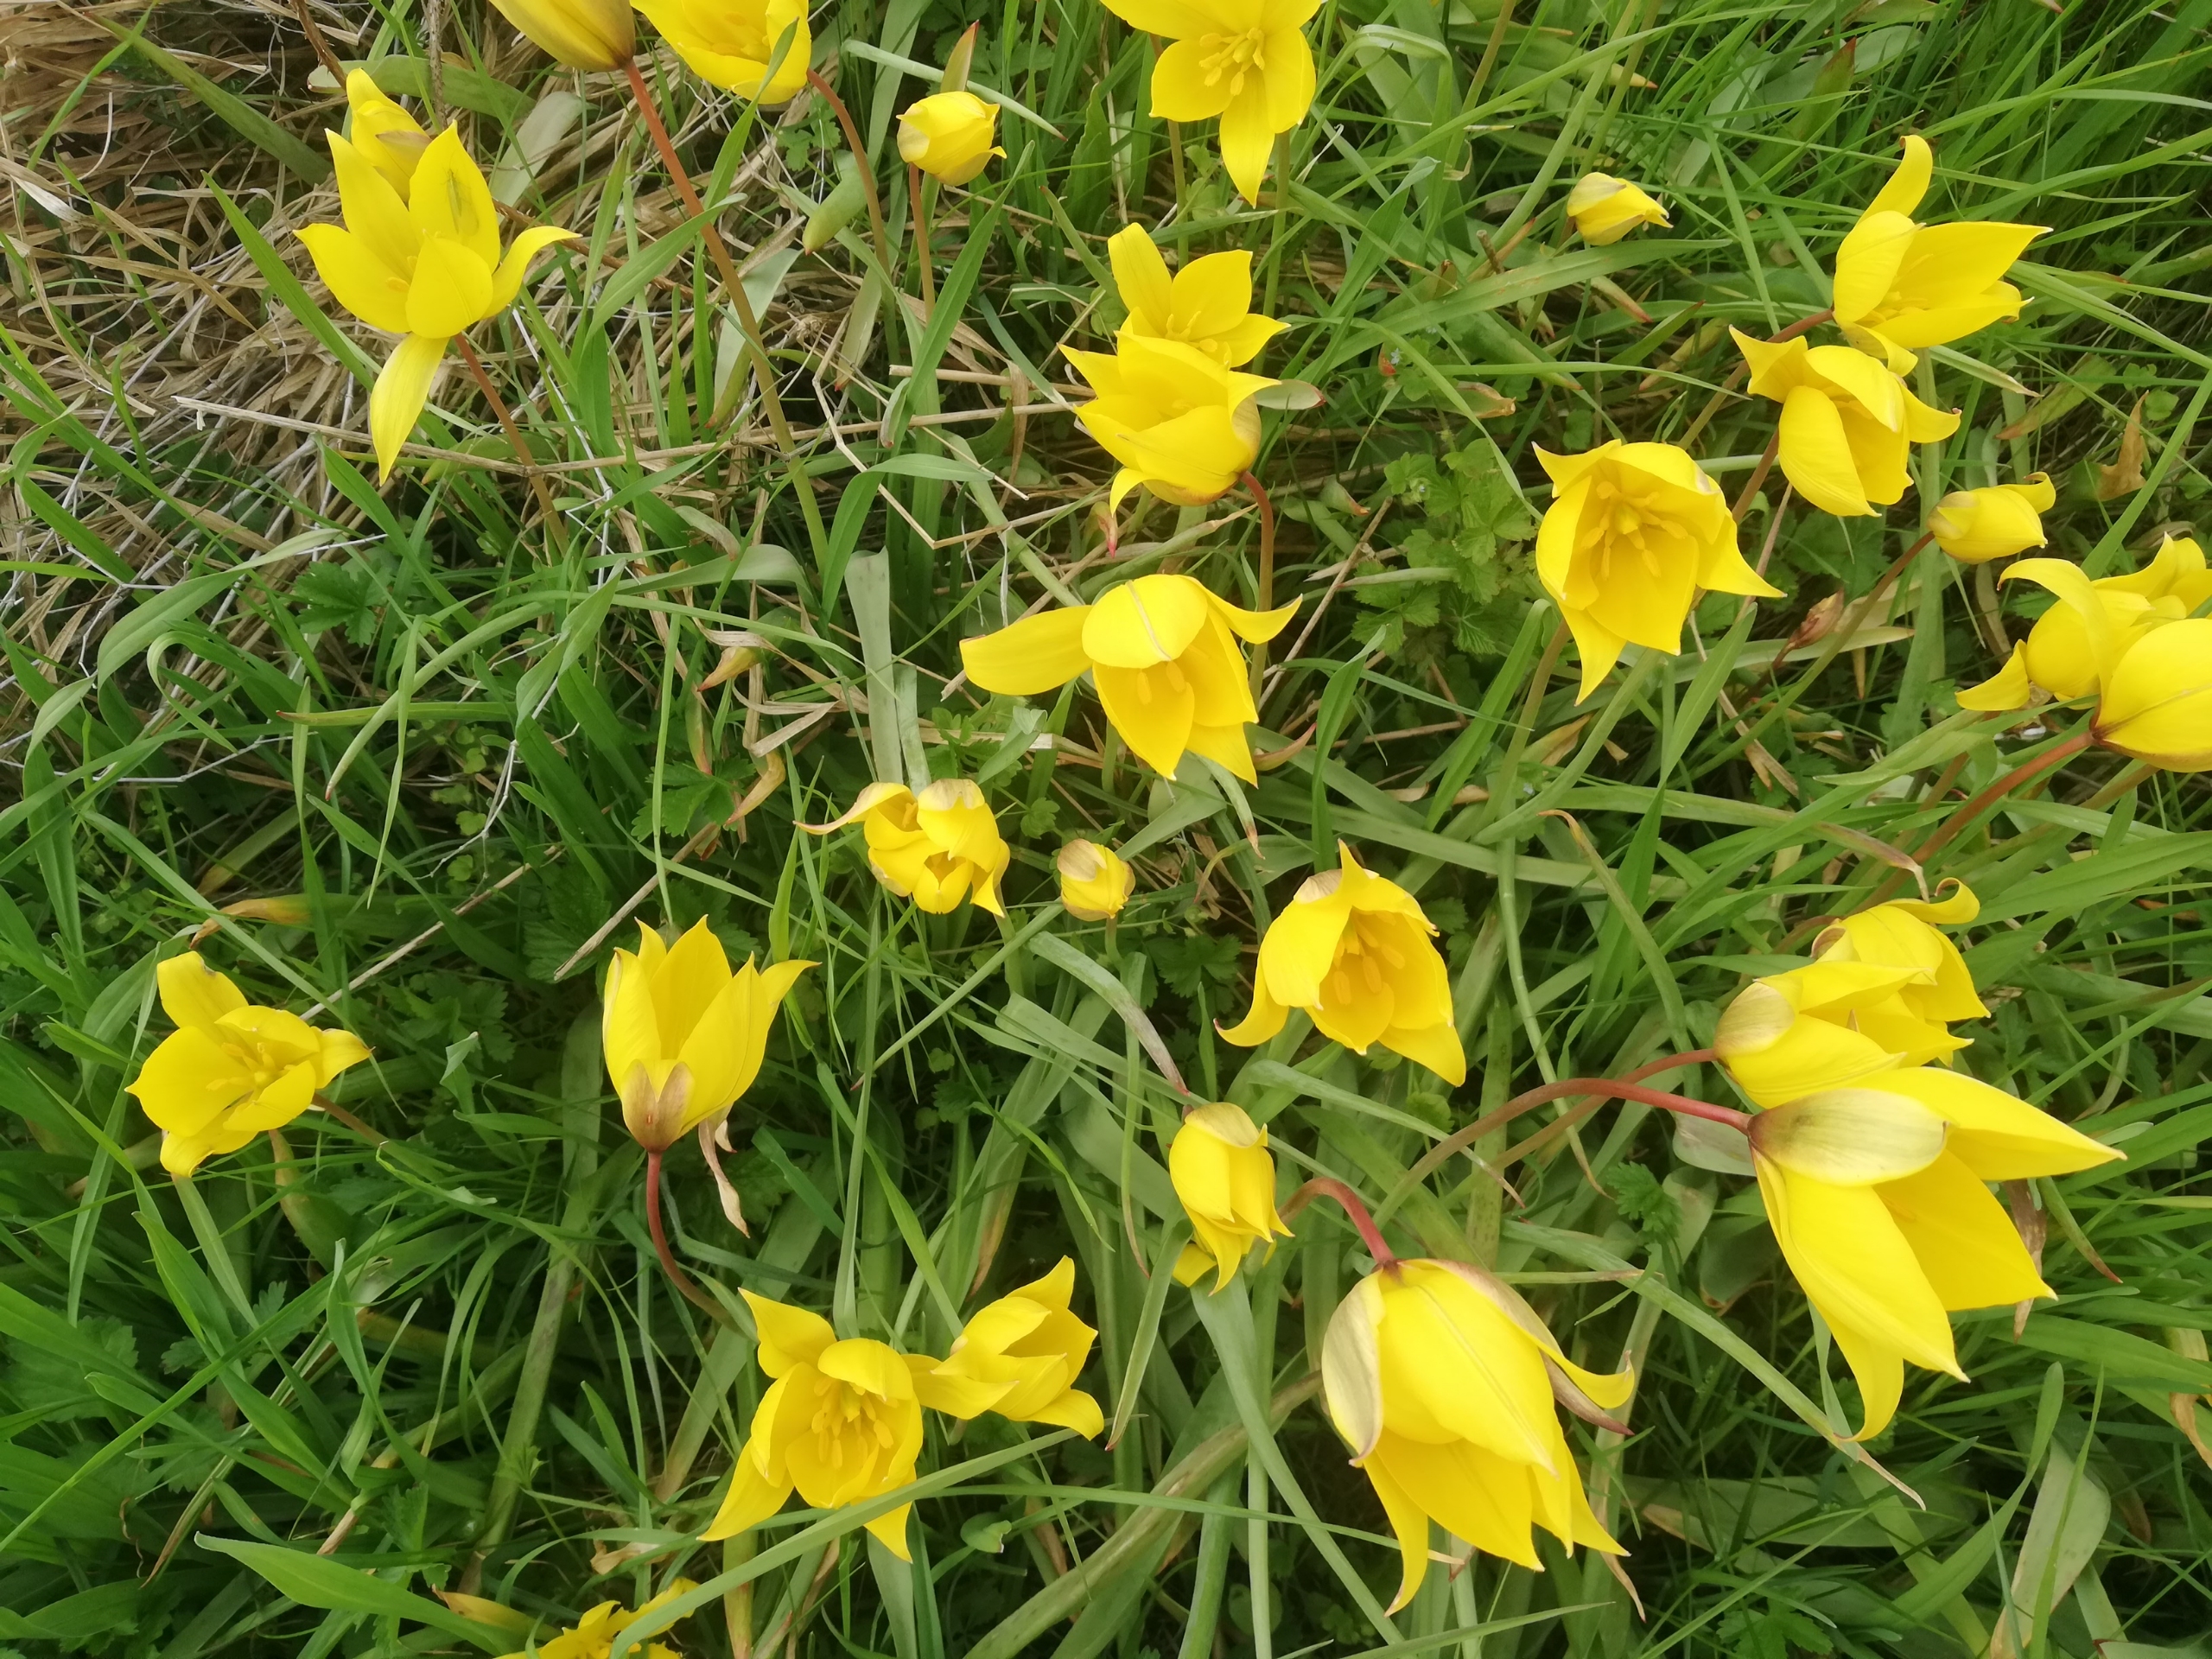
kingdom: Plantae
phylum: Tracheophyta
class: Liliopsida
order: Liliales
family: Liliaceae
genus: Tulipa
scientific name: Tulipa sylvestris
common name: Vild tulipan
